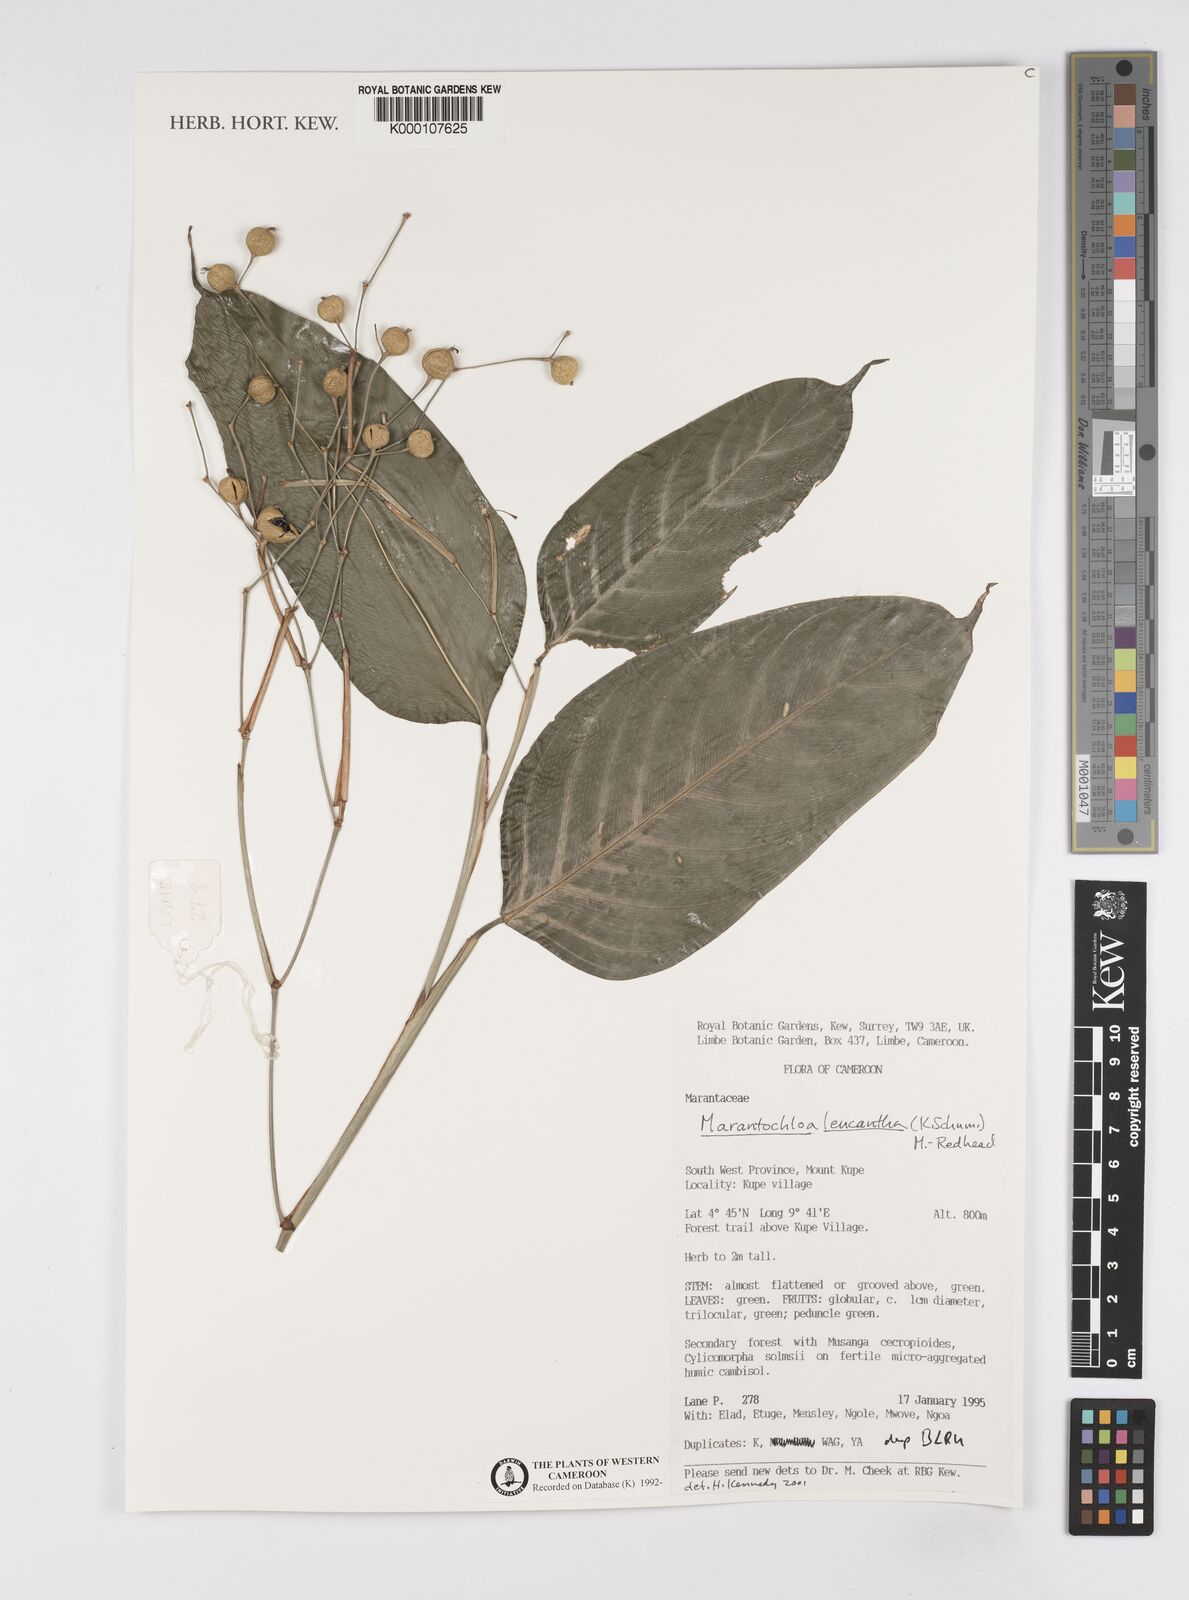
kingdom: Plantae
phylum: Tracheophyta
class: Liliopsida
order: Zingiberales
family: Marantaceae
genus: Marantochloa
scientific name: Marantochloa leucantha
